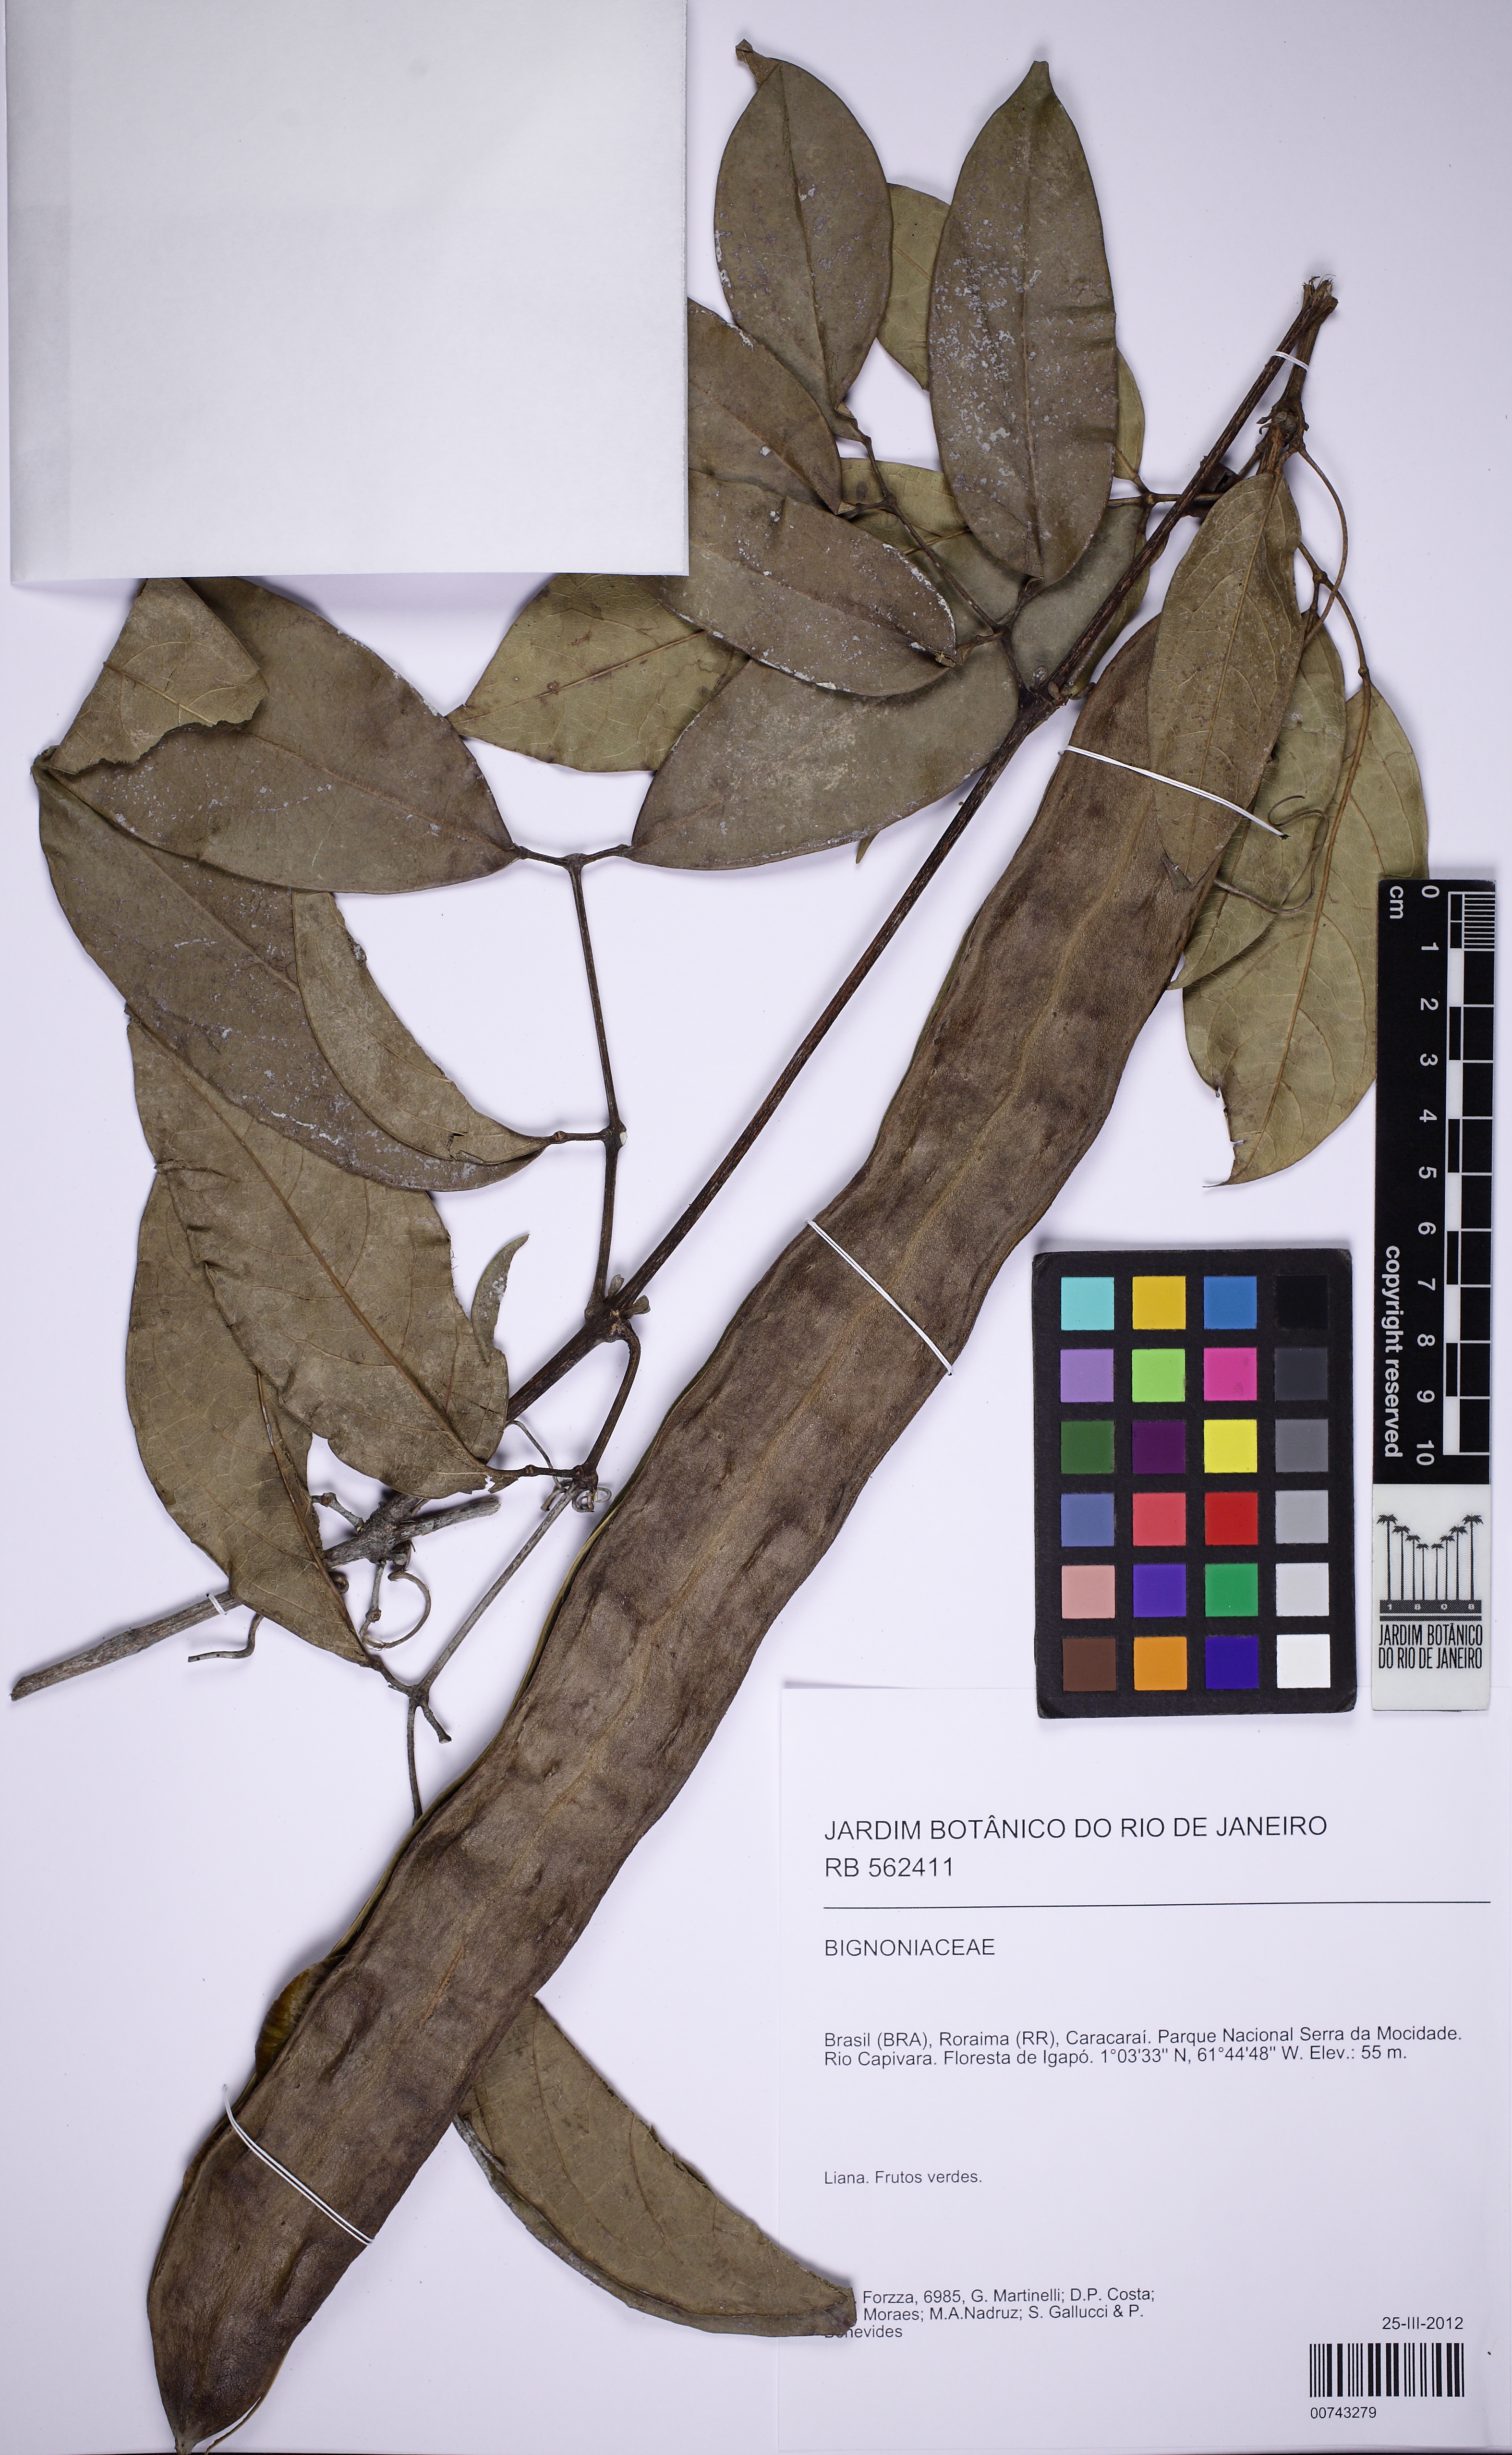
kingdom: Plantae
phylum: Tracheophyta
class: Magnoliopsida
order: Lamiales
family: Bignoniaceae
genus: Adenocalymma
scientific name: Adenocalymma
